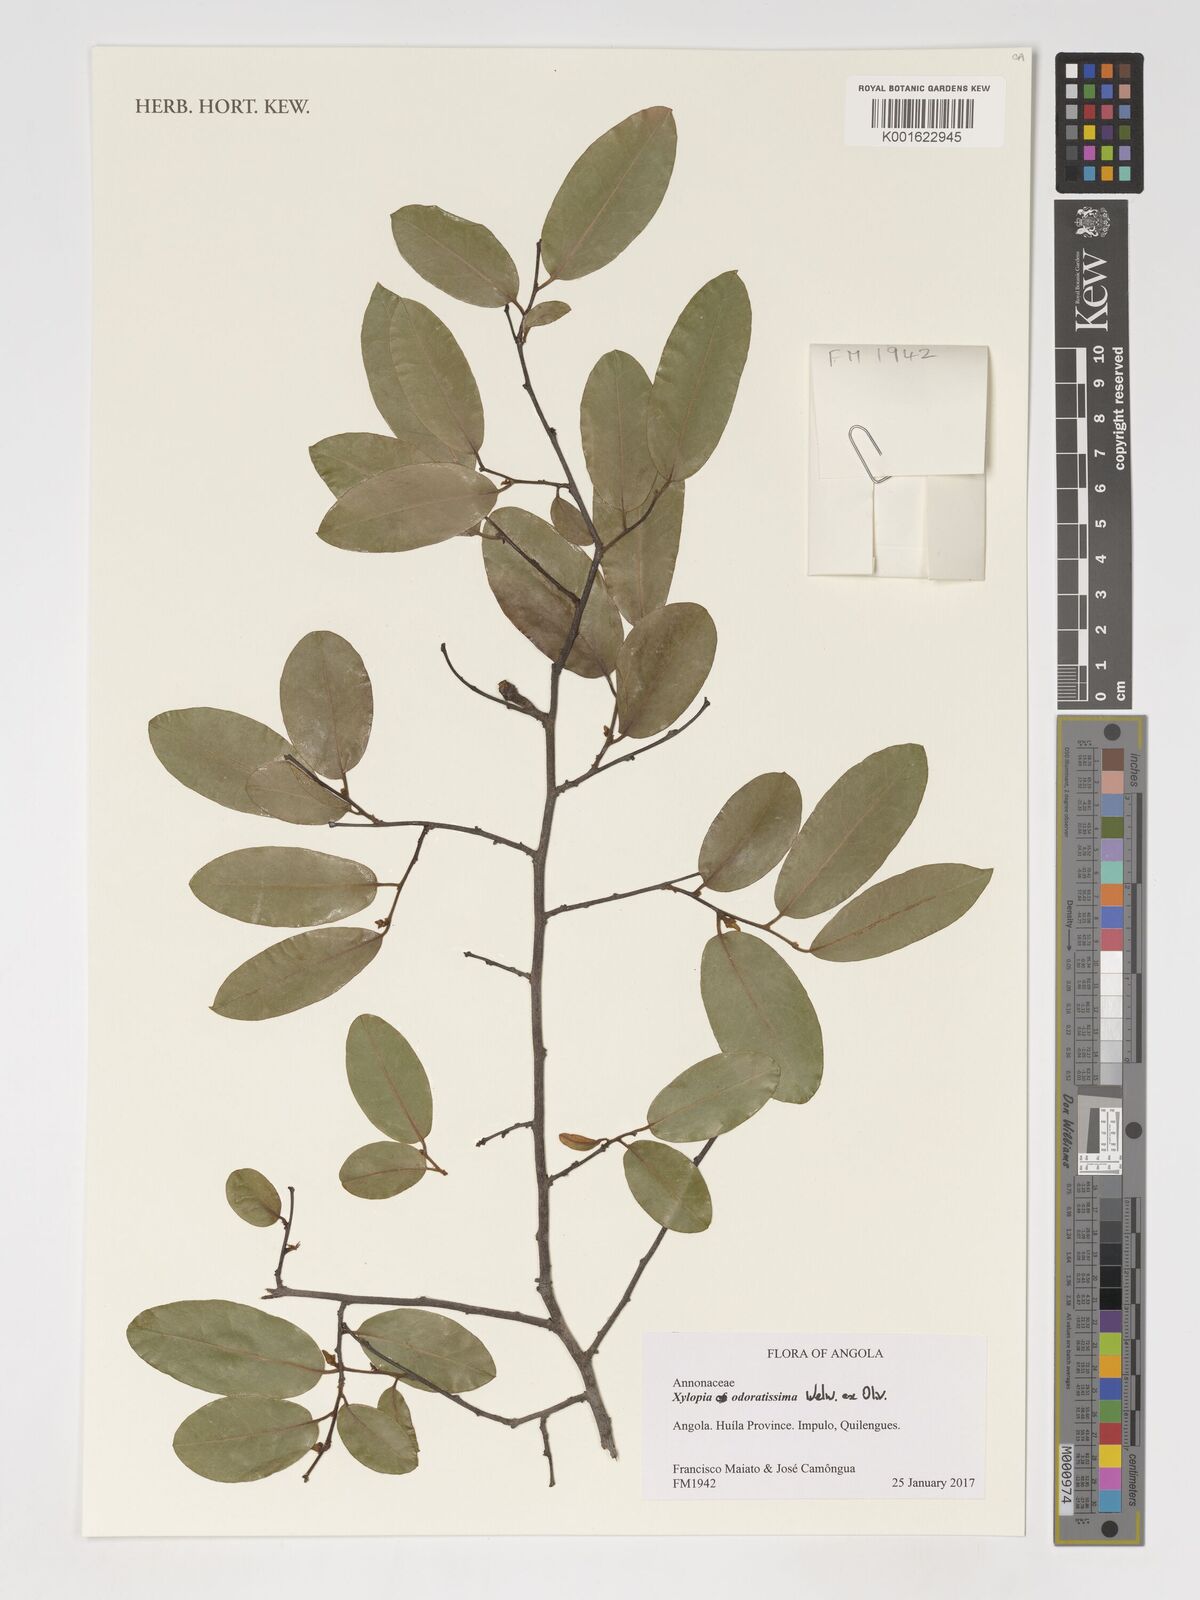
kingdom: Plantae
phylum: Tracheophyta
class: Magnoliopsida
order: Magnoliales
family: Annonaceae
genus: Xylopia
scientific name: Xylopia odoratissima
